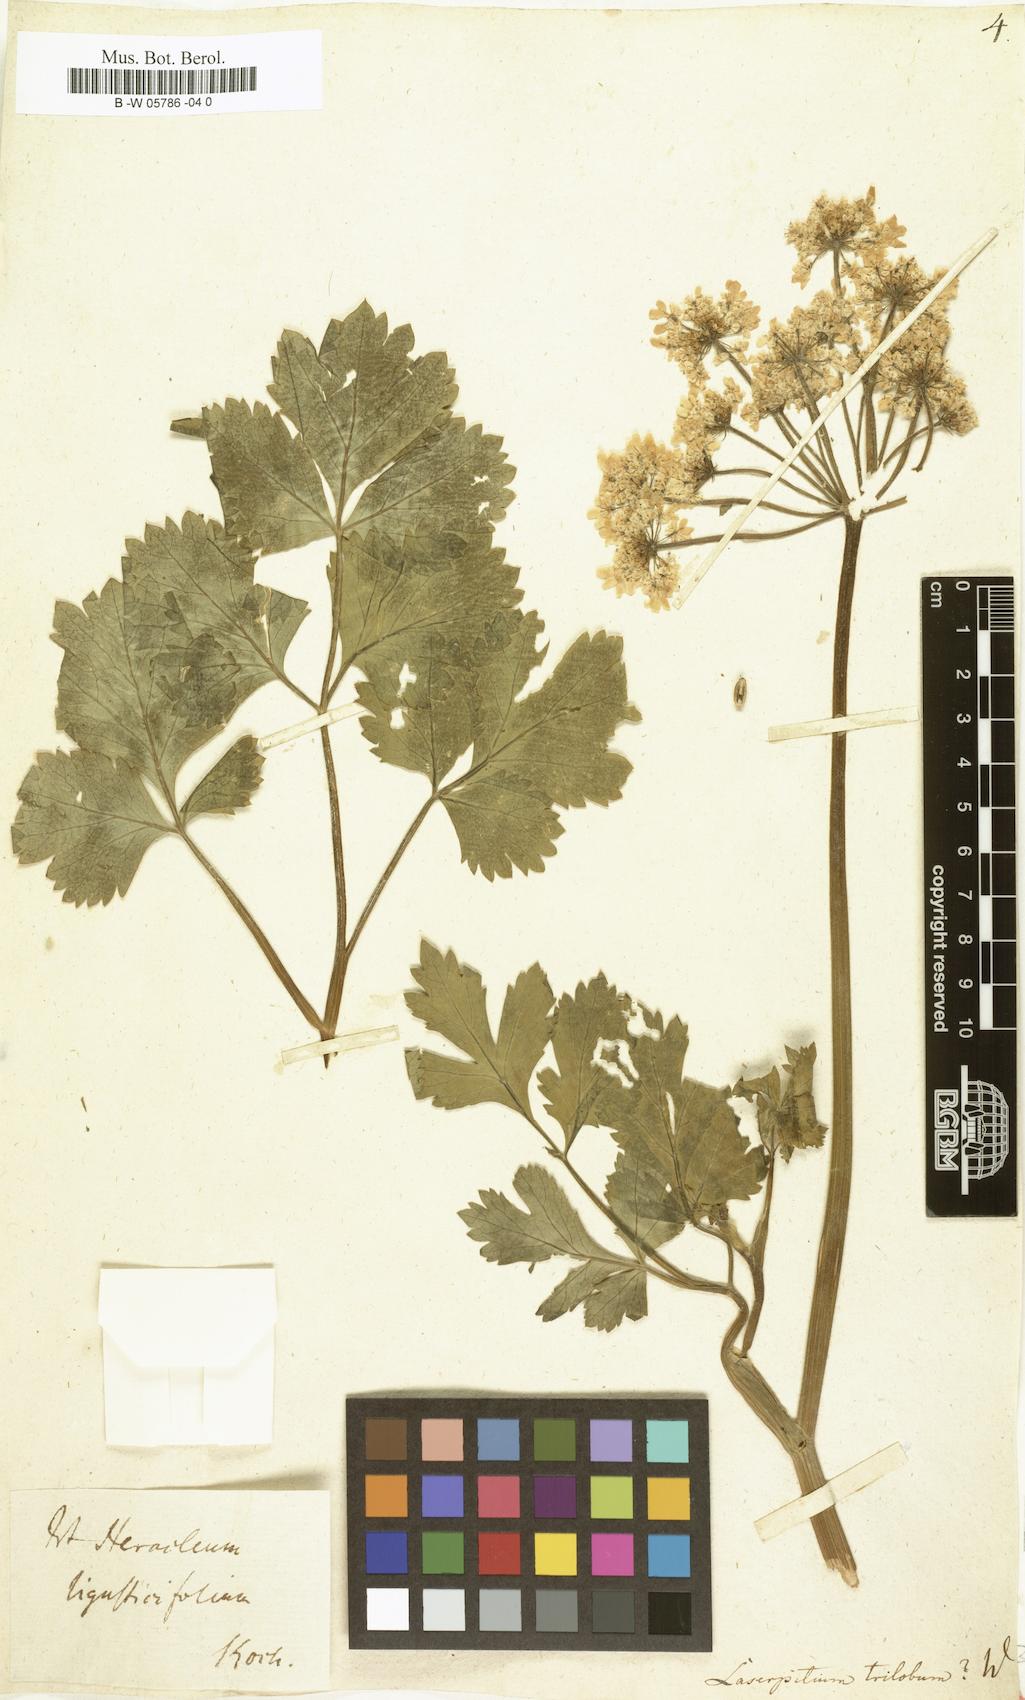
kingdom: Plantae
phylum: Tracheophyta
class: Magnoliopsida
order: Apiales
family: Apiaceae
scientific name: Apiaceae
